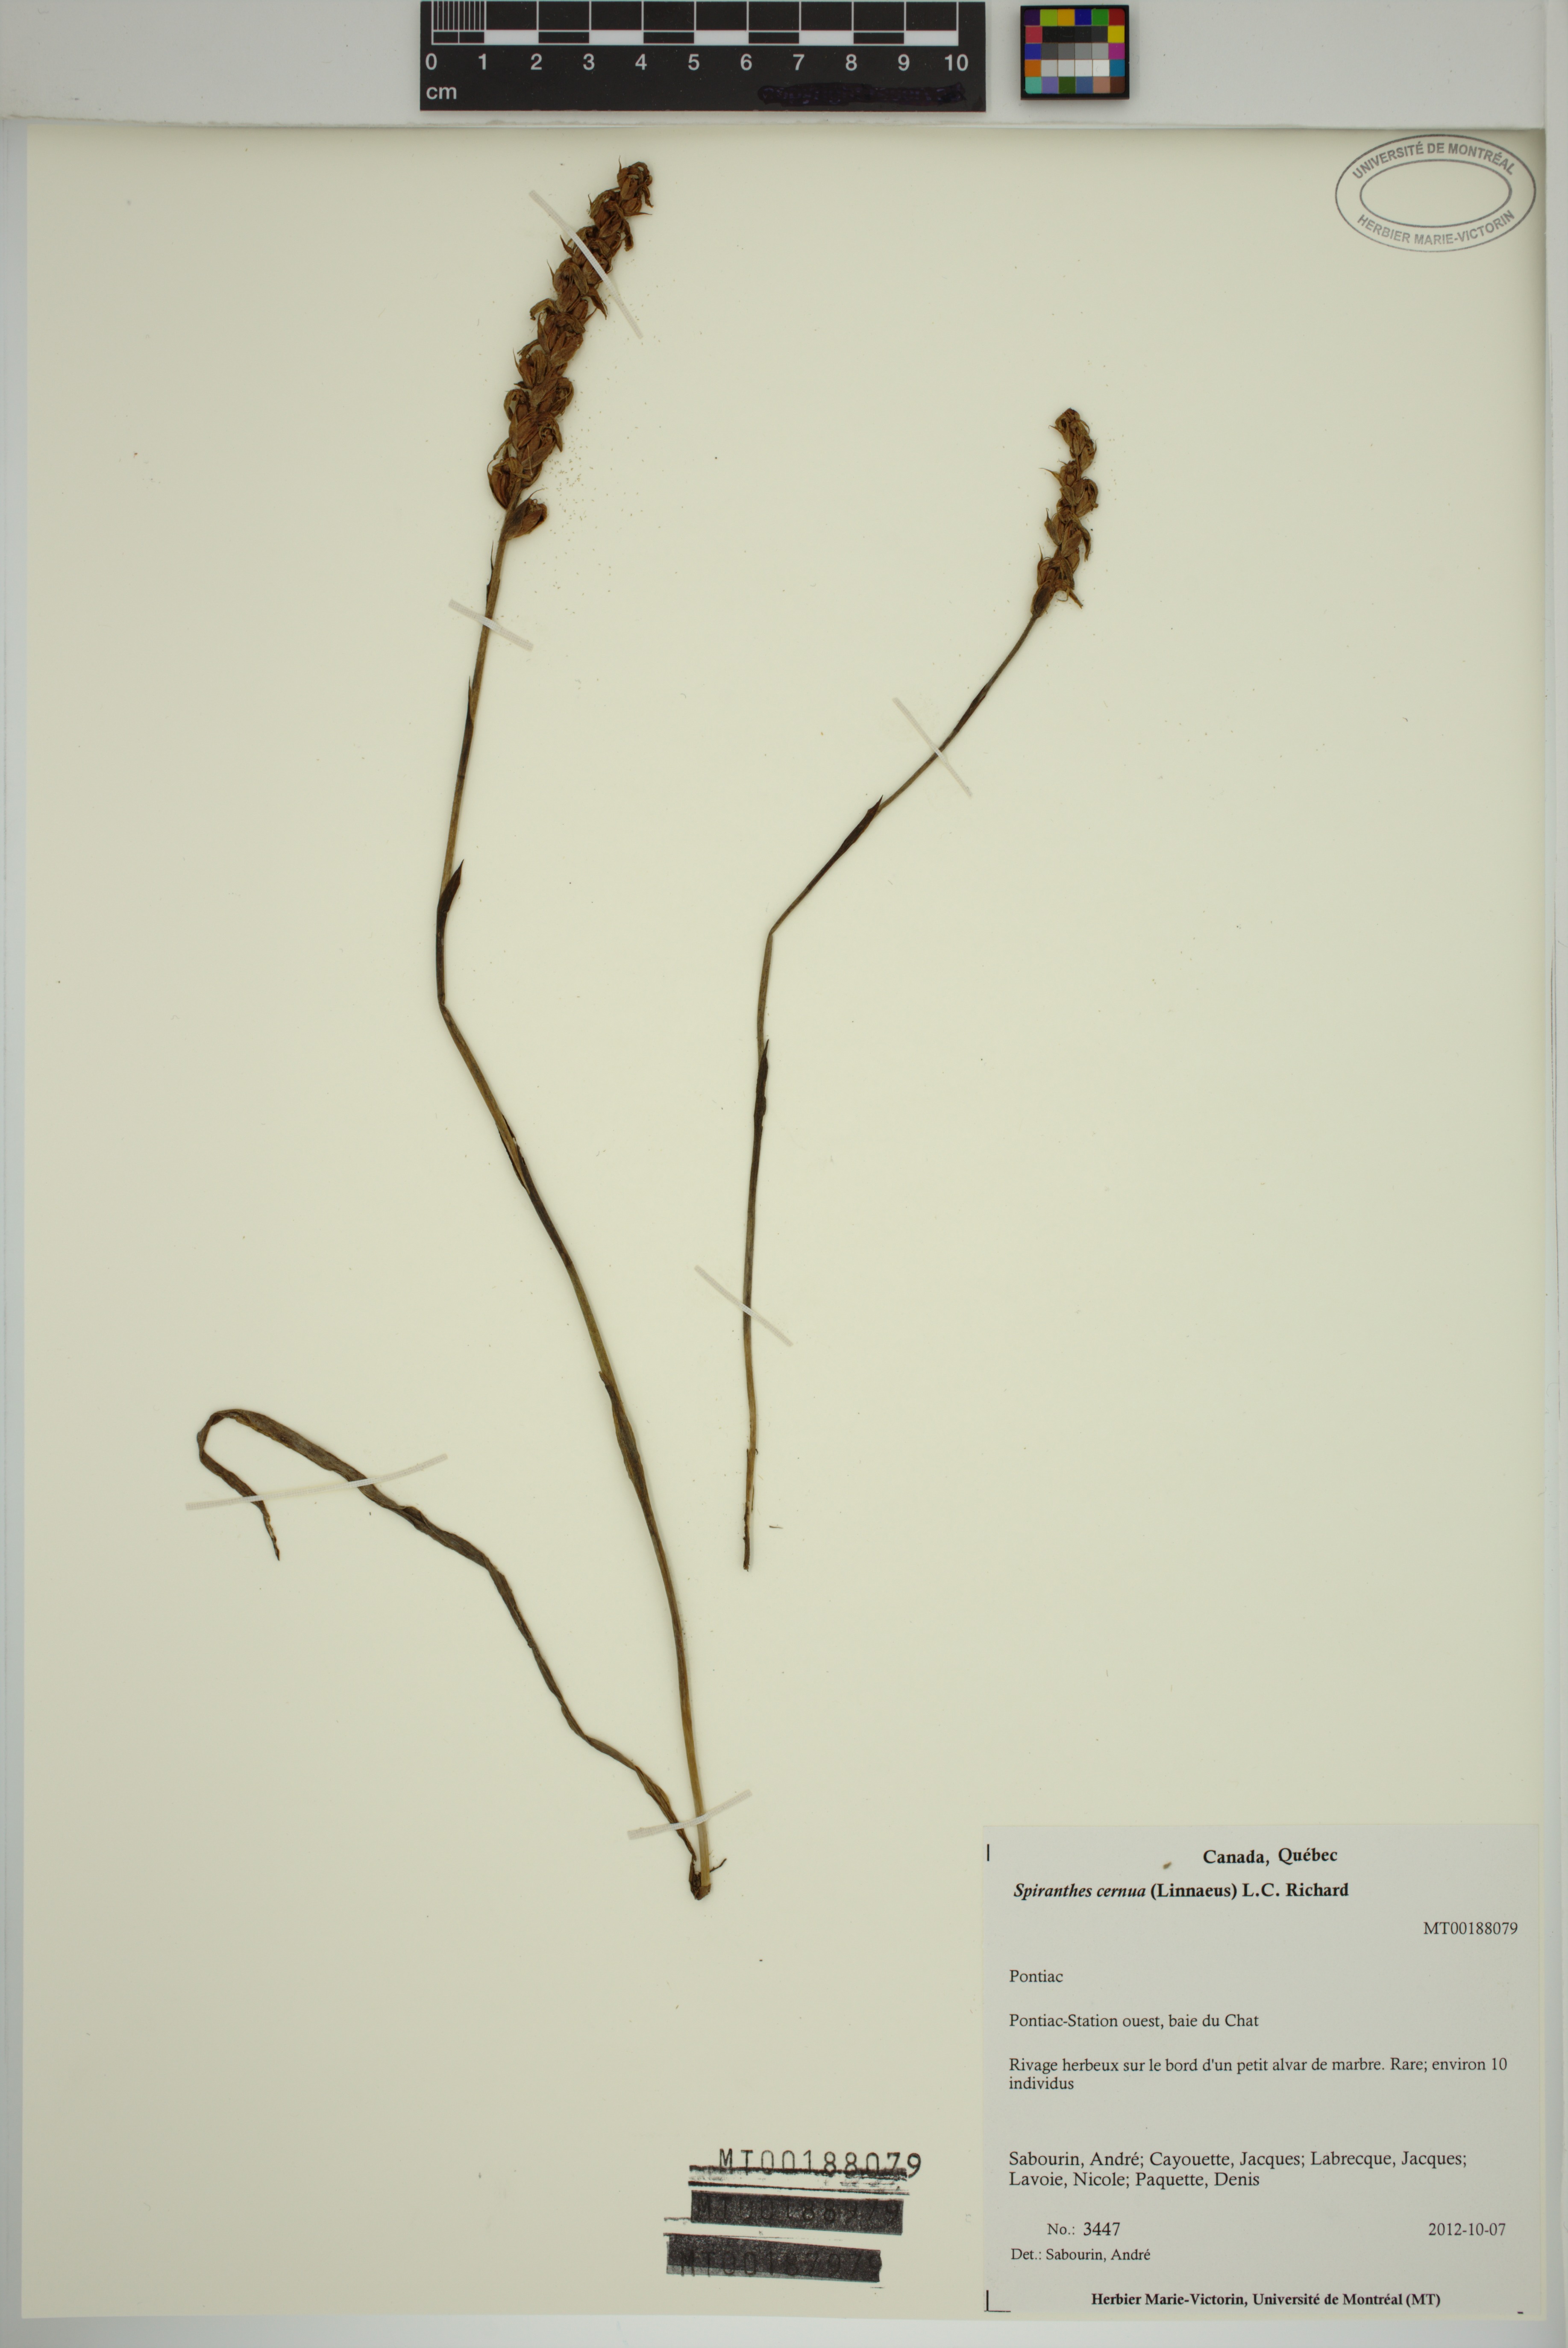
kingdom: Plantae
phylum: Tracheophyta
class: Liliopsida
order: Asparagales
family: Orchidaceae
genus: Spiranthes
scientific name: Spiranthes cernua
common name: Dropping ladies'-tresses
